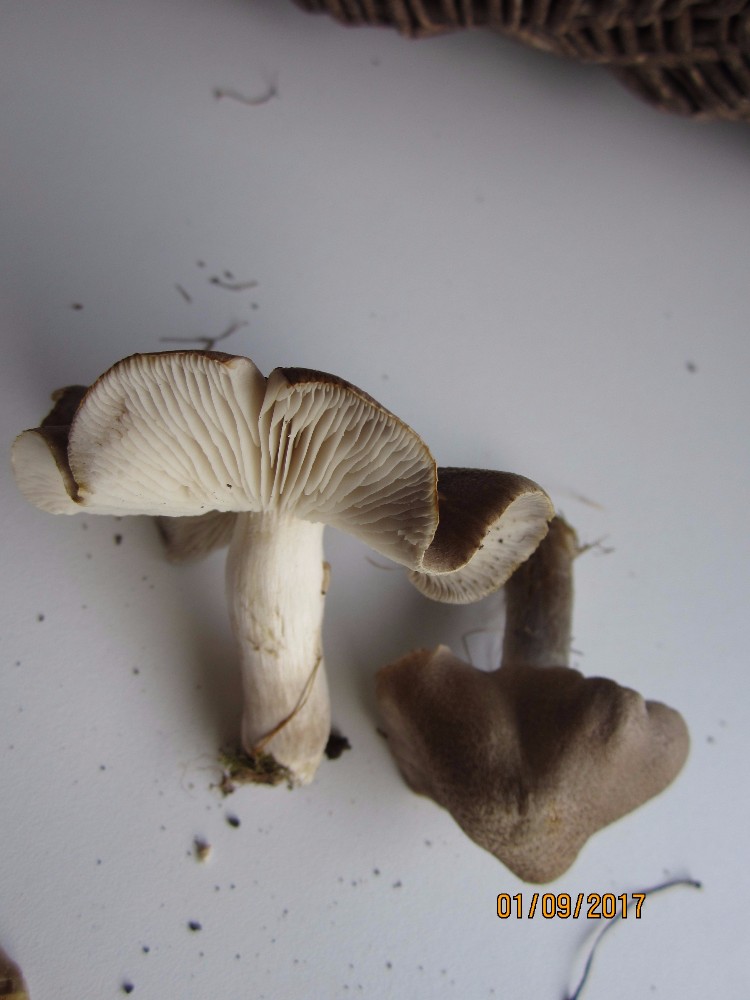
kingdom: Fungi
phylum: Basidiomycota
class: Agaricomycetes
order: Agaricales
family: Tricholomataceae
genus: Tricholoma
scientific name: Tricholoma scalpturatum
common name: gulplettet ridderhat
